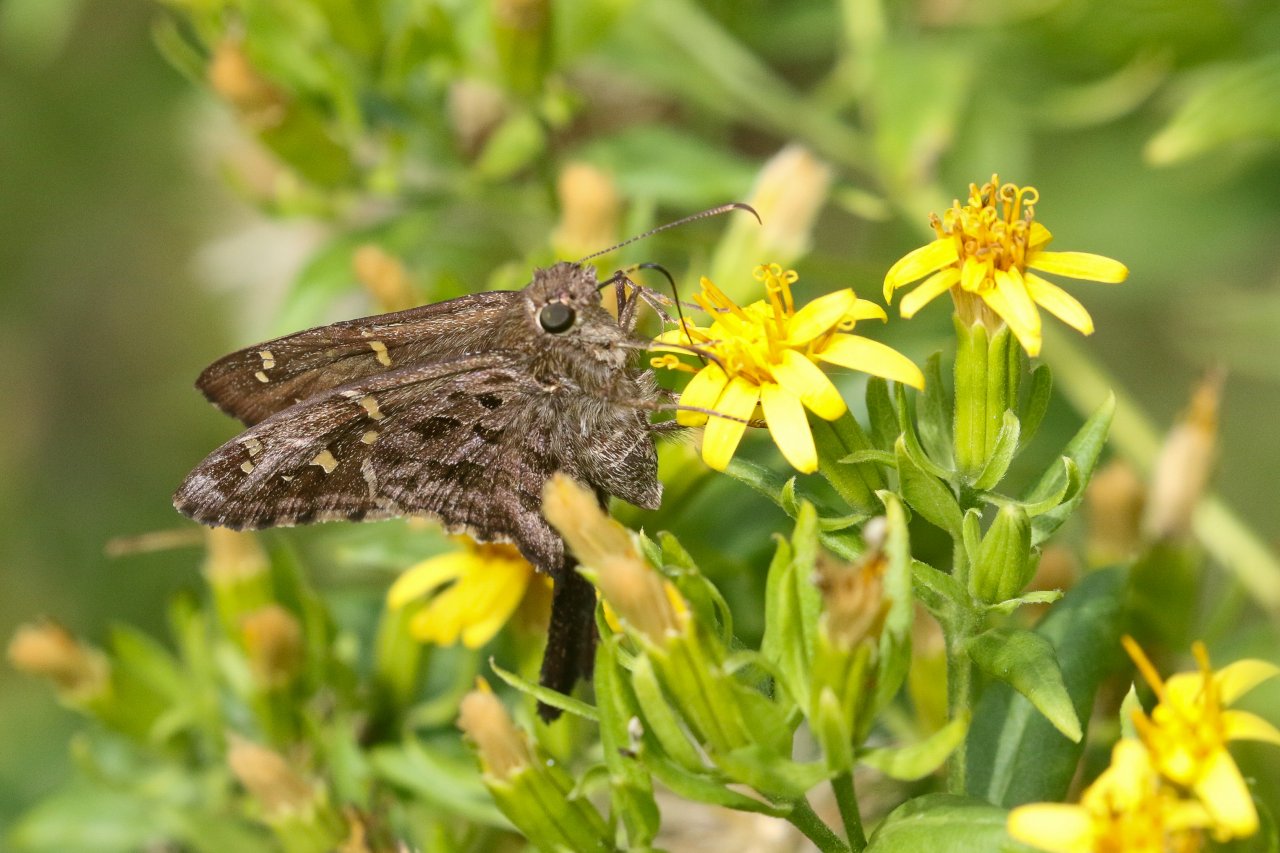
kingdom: Animalia
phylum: Arthropoda
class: Insecta
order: Lepidoptera
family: Hesperiidae
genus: Urbanus
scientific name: Urbanus dorantes
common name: Dorantes Longtail
